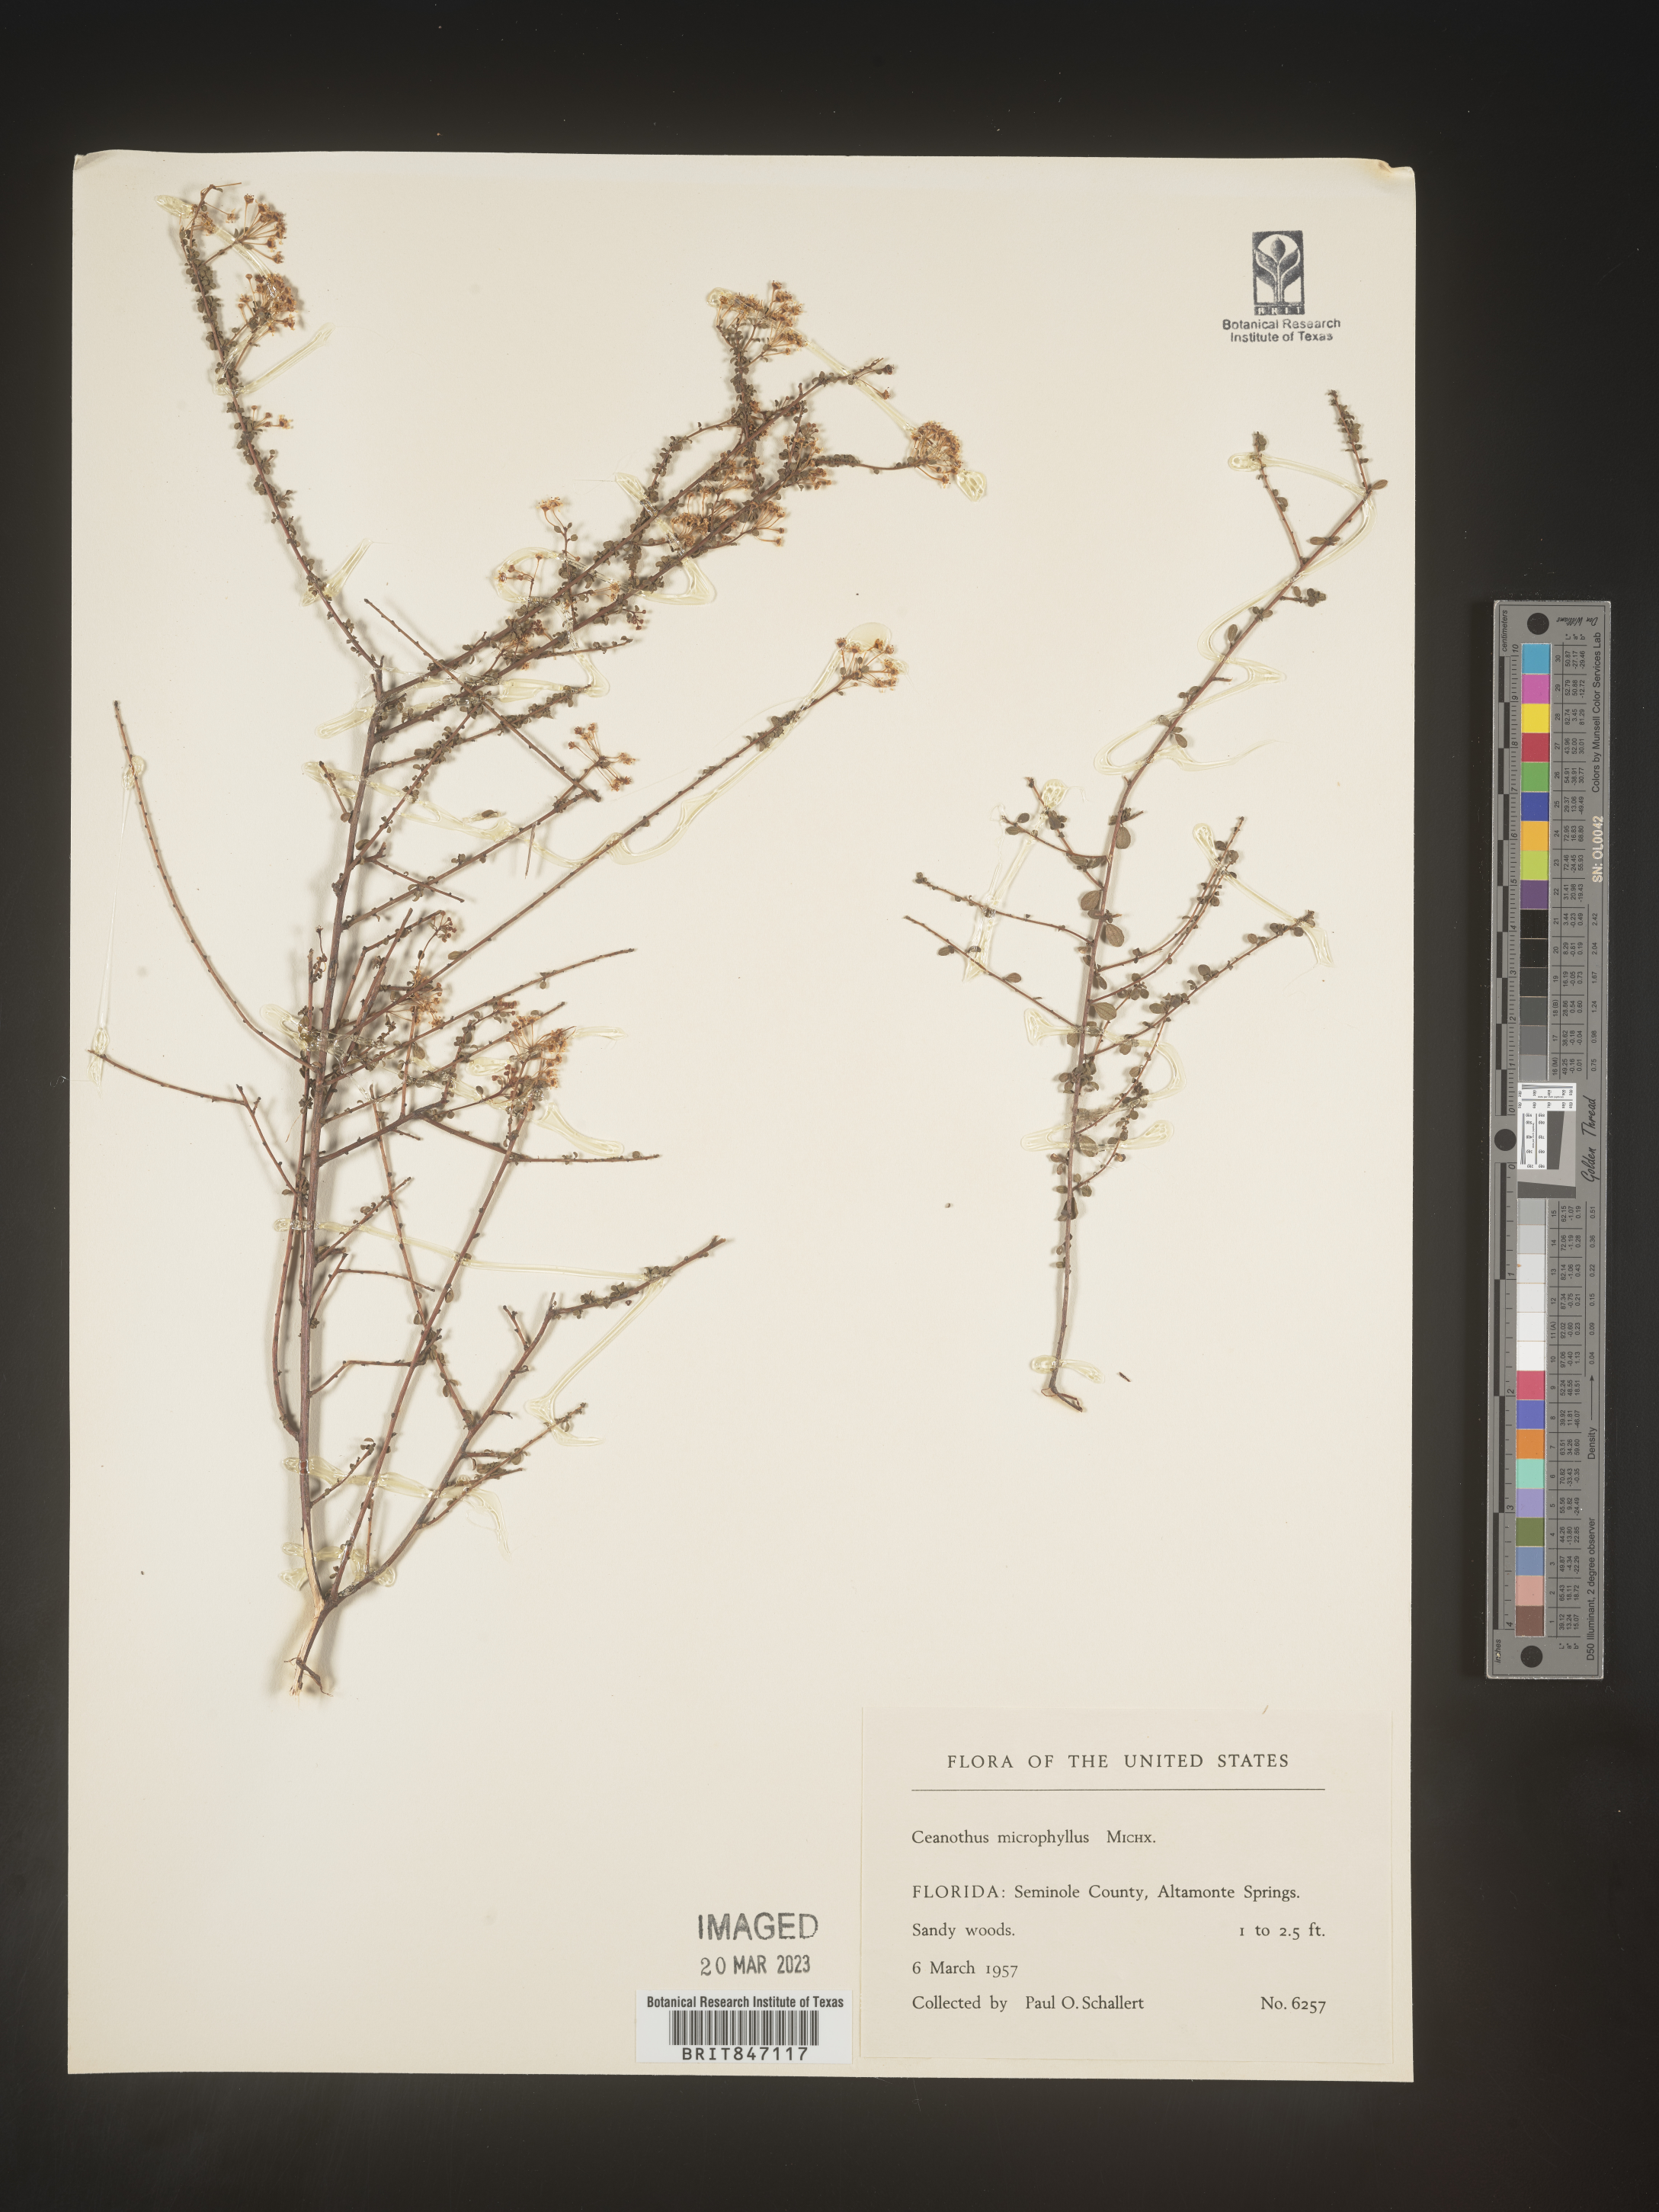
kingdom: Plantae
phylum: Tracheophyta
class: Magnoliopsida
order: Rosales
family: Rhamnaceae
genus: Ceanothus
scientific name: Ceanothus
